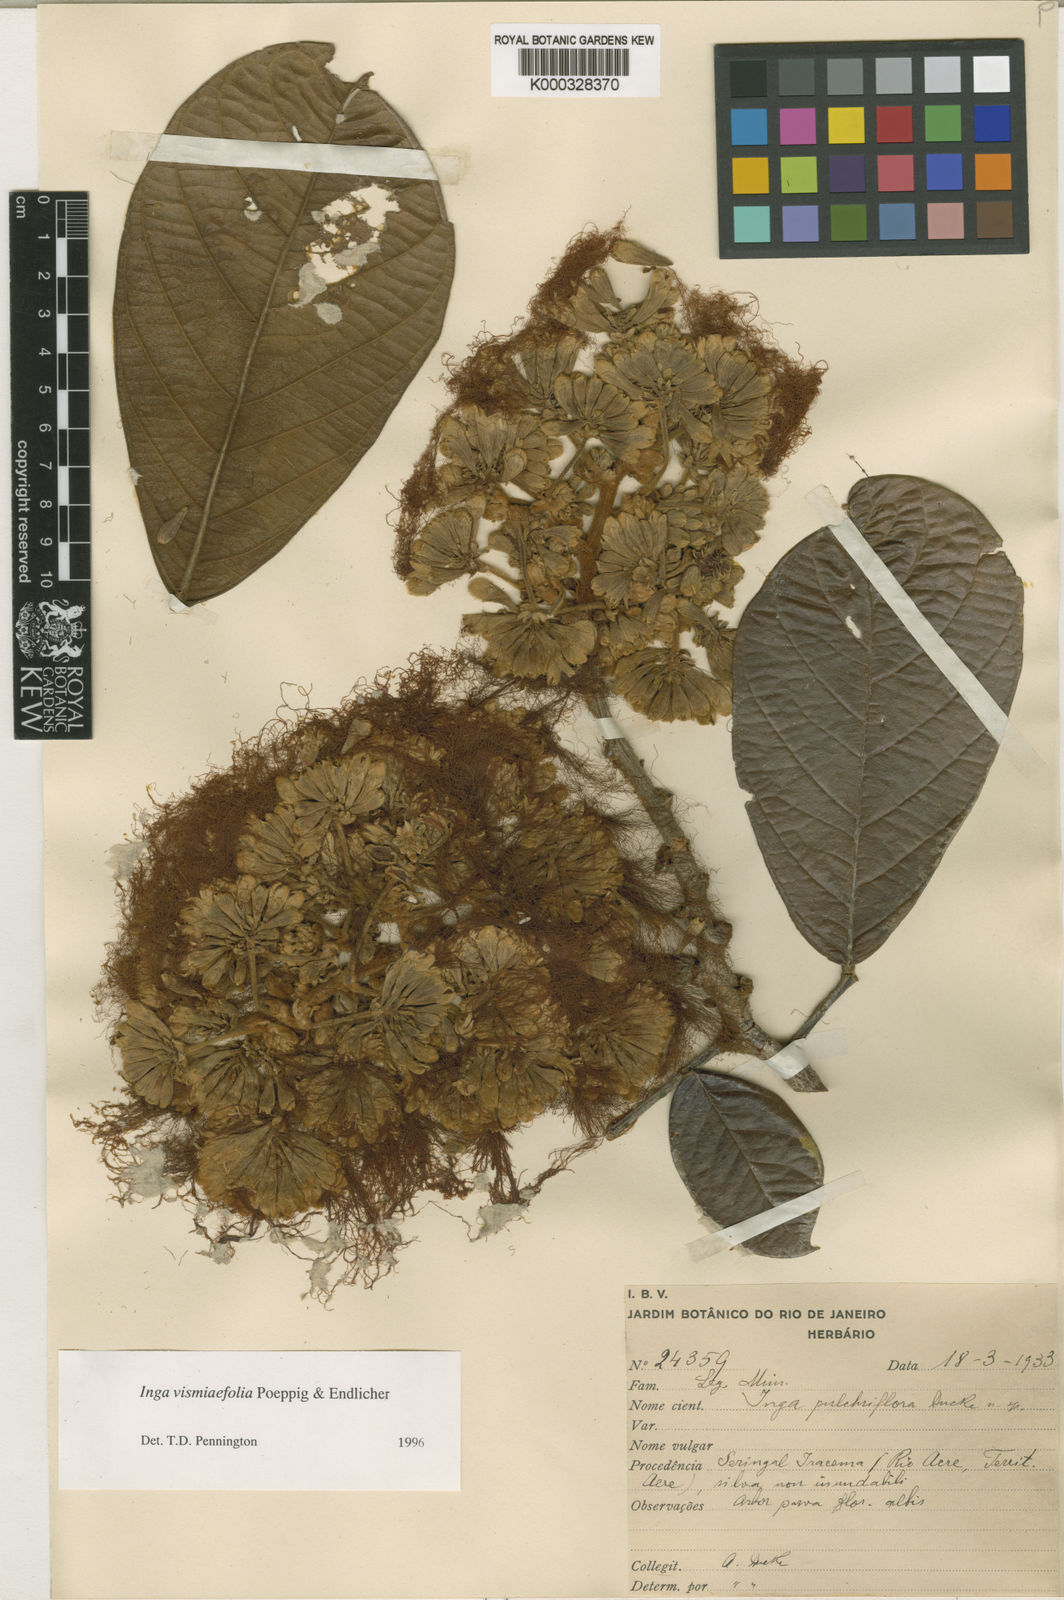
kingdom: Plantae
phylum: Tracheophyta
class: Magnoliopsida
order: Fabales
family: Fabaceae
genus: Inga
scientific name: Inga vismiifolia
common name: Howler monkey inga
